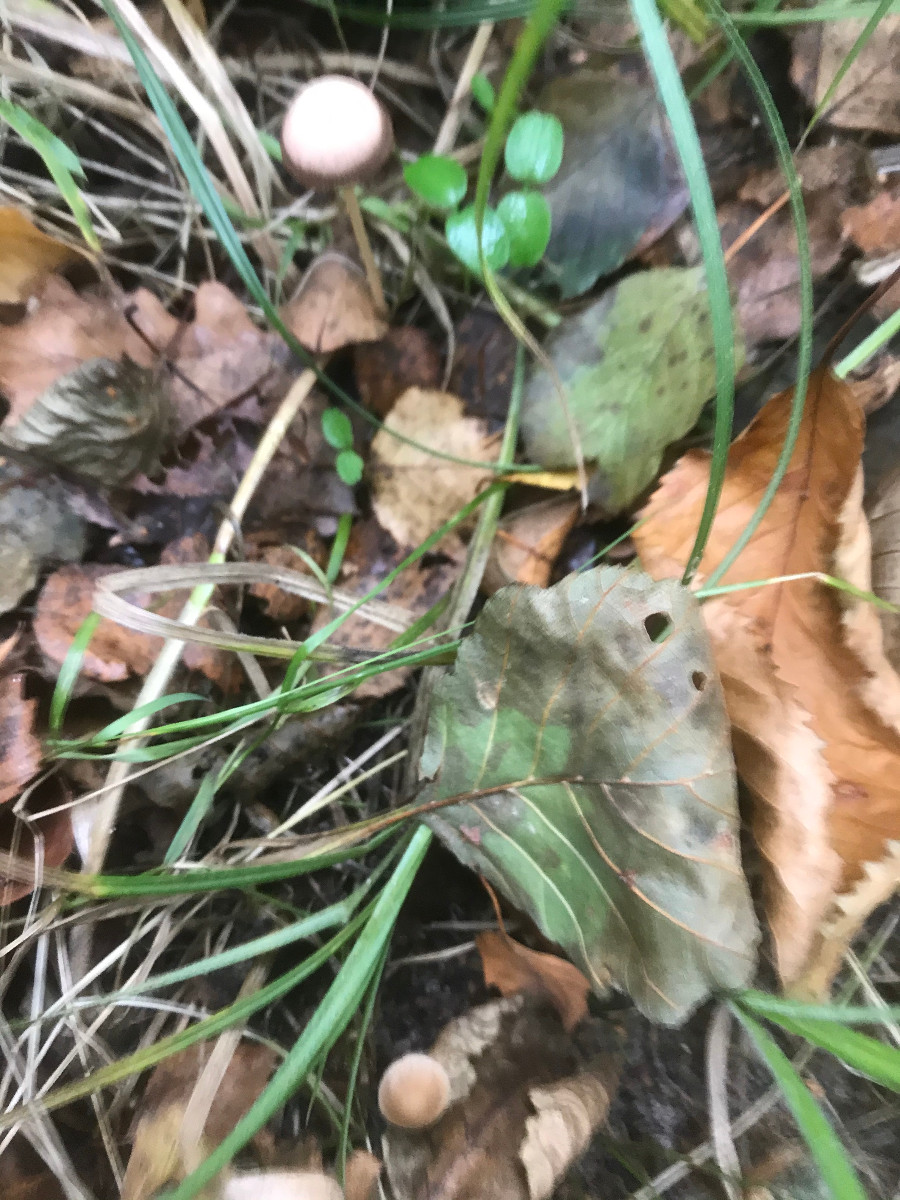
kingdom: Fungi
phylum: Basidiomycota
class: Agaricomycetes
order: Agaricales
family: Psathyrellaceae
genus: Psathyrella
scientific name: Psathyrella
